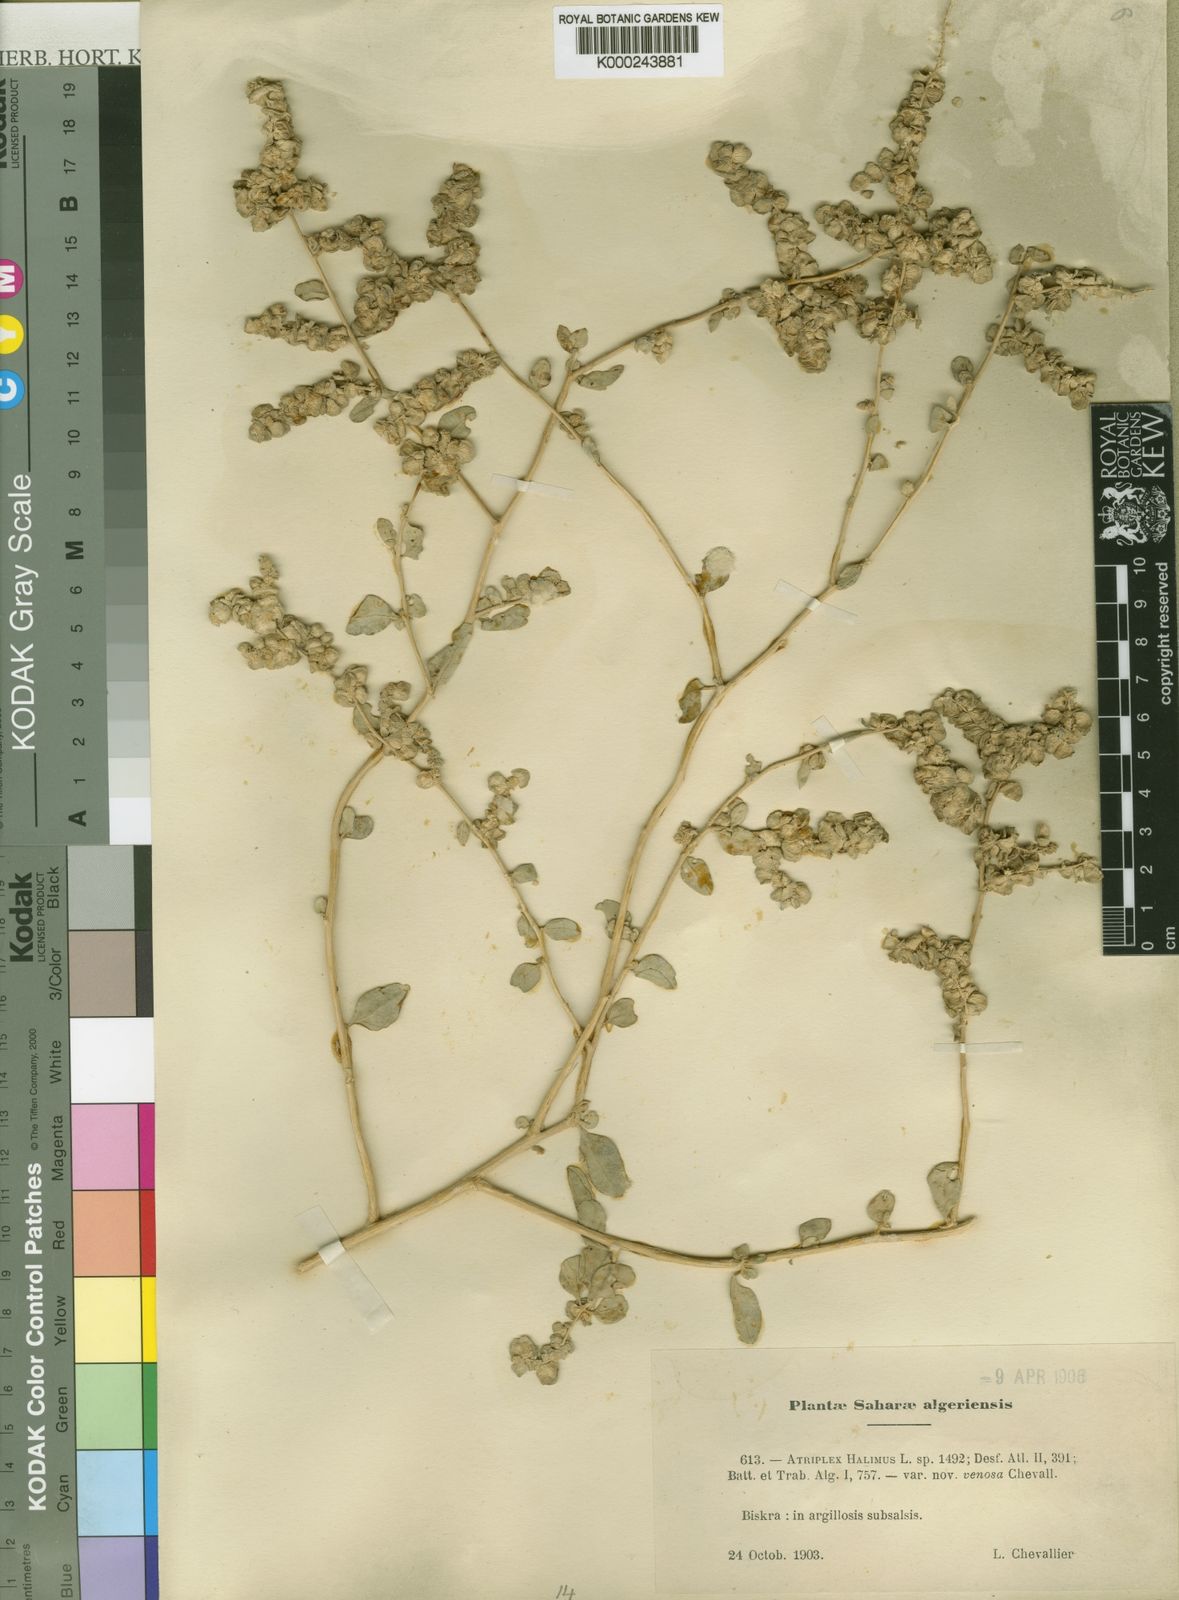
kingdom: Plantae
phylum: Tracheophyta
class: Magnoliopsida
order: Caryophyllales
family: Amaranthaceae
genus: Atriplex
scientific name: Atriplex halimus
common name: Shrubby orache
